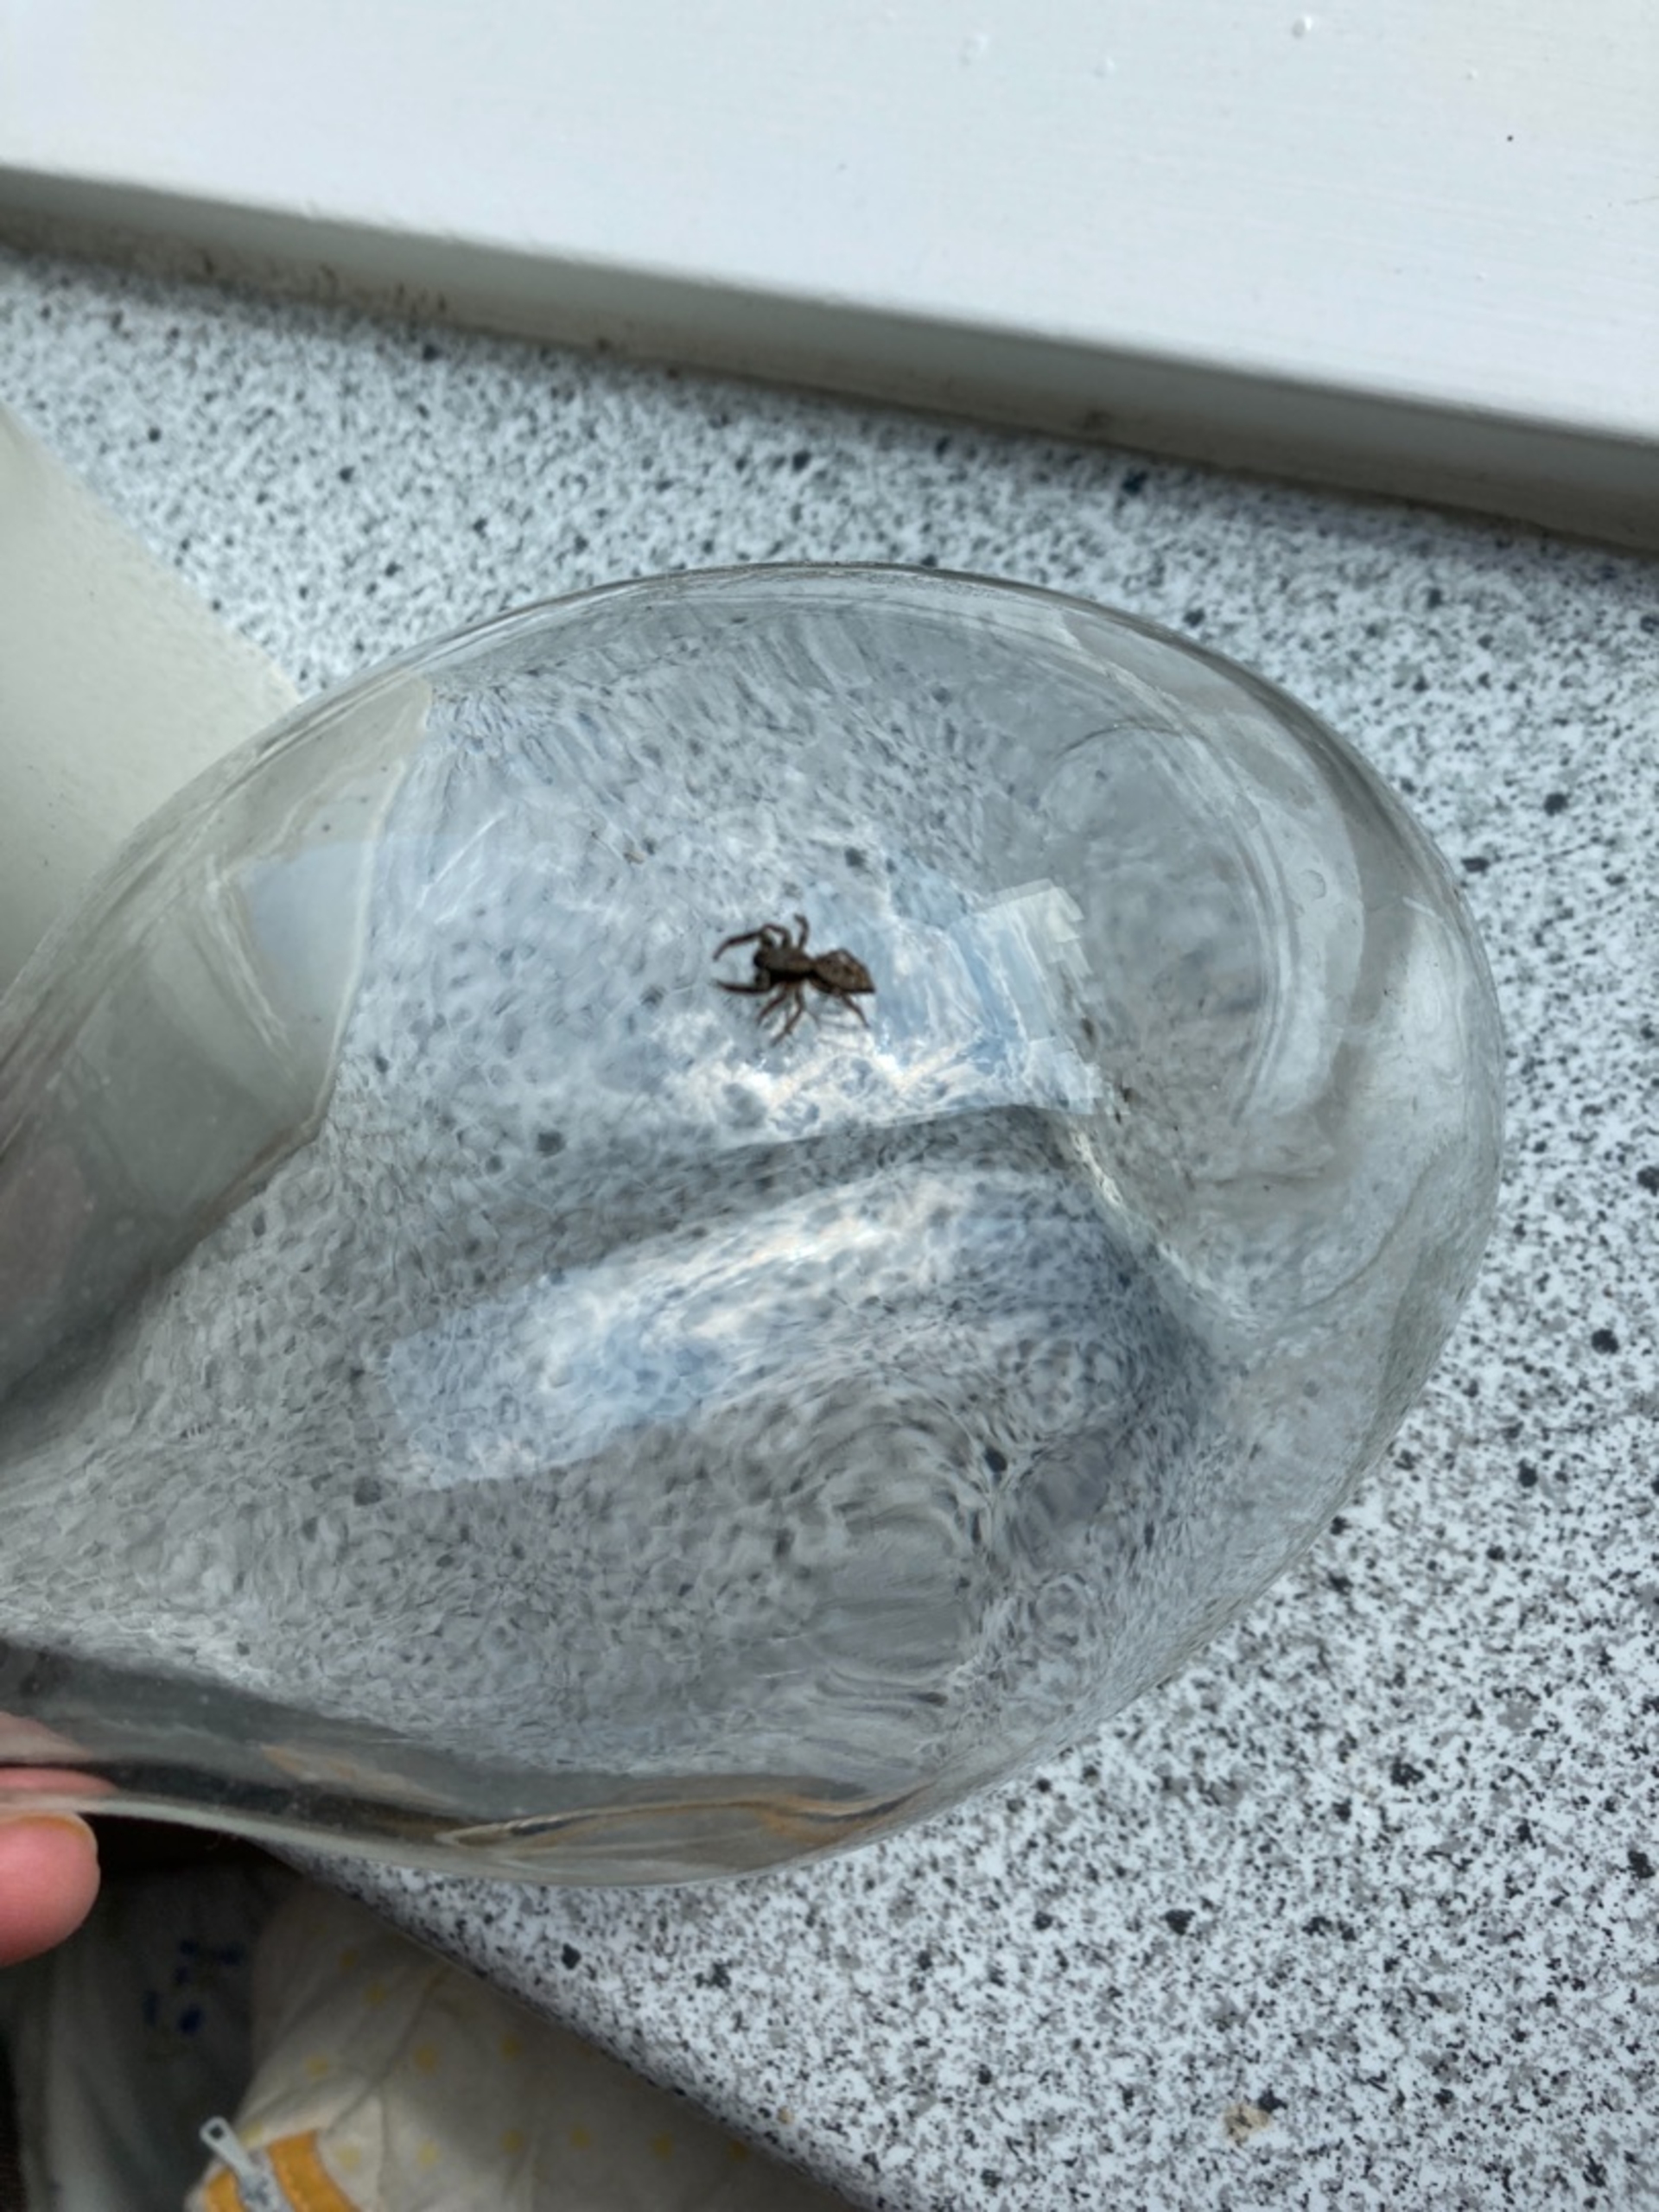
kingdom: Animalia
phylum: Arthropoda
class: Arachnida
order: Araneae
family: Salticidae
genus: Marpissa
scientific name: Marpissa muscosa
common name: Stor springedderkop
